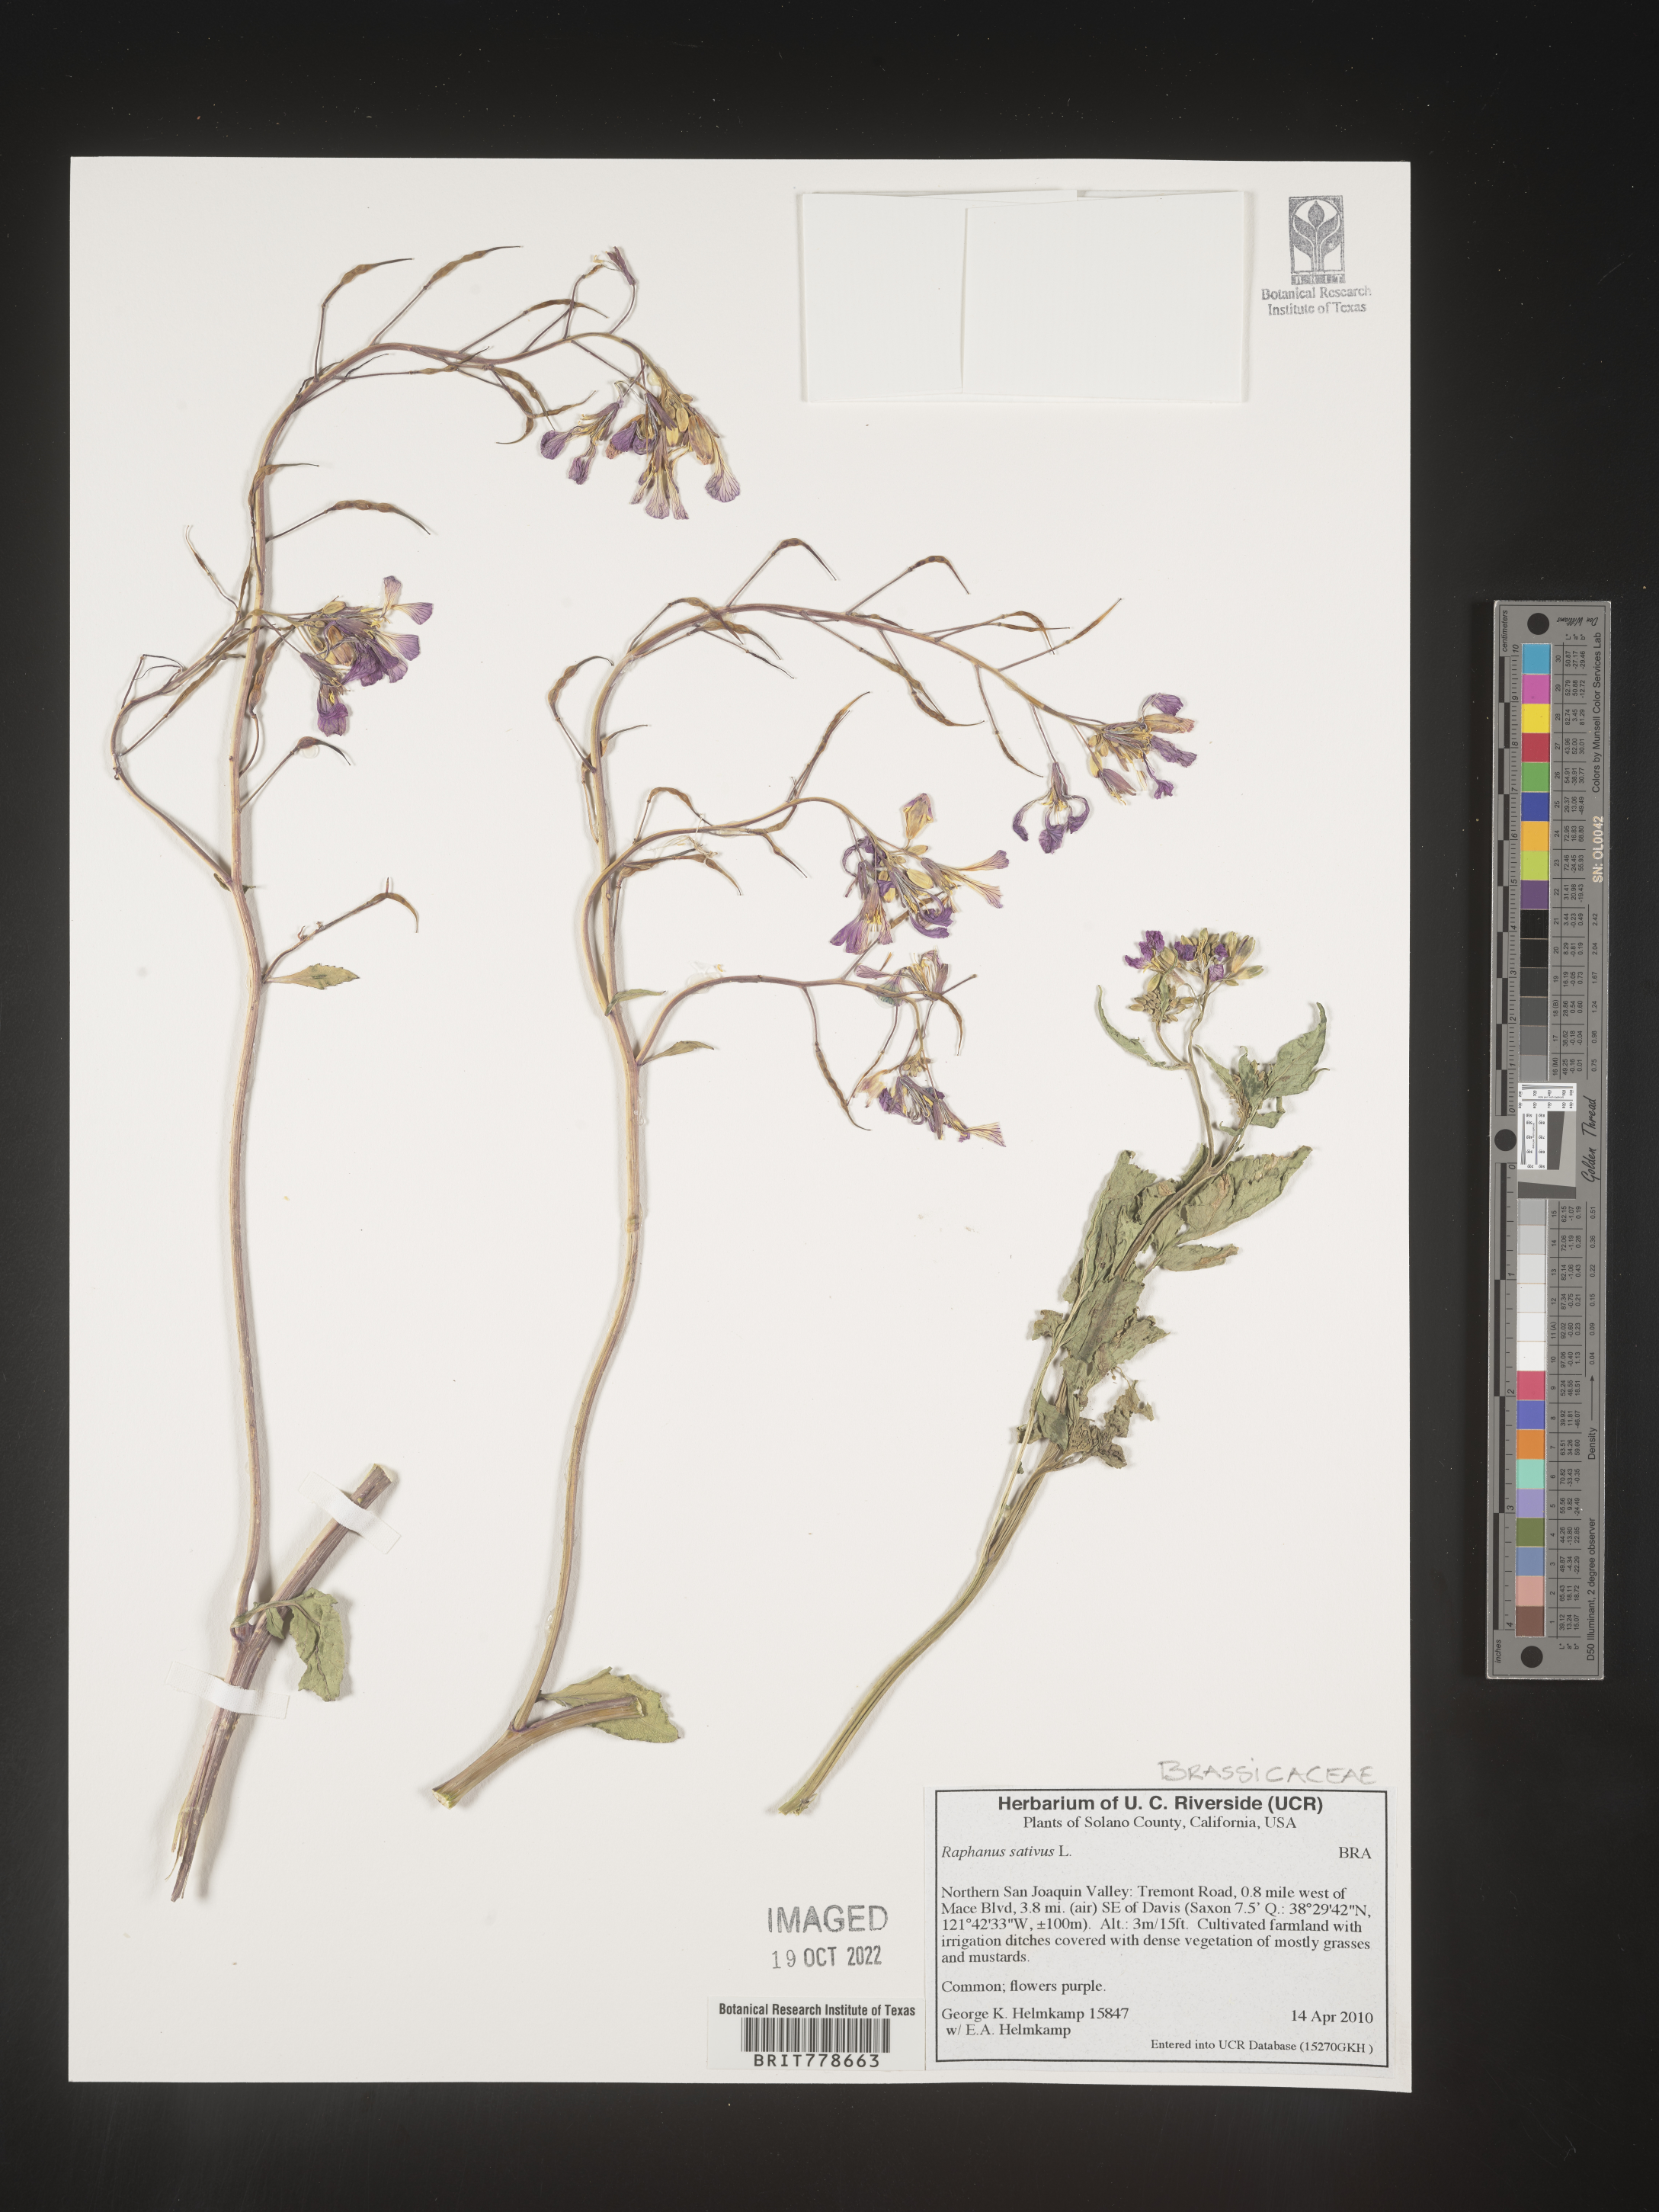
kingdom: Plantae
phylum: Tracheophyta
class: Magnoliopsida
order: Brassicales
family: Brassicaceae
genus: Raphanus
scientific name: Raphanus sativus
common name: Cultivated radish
